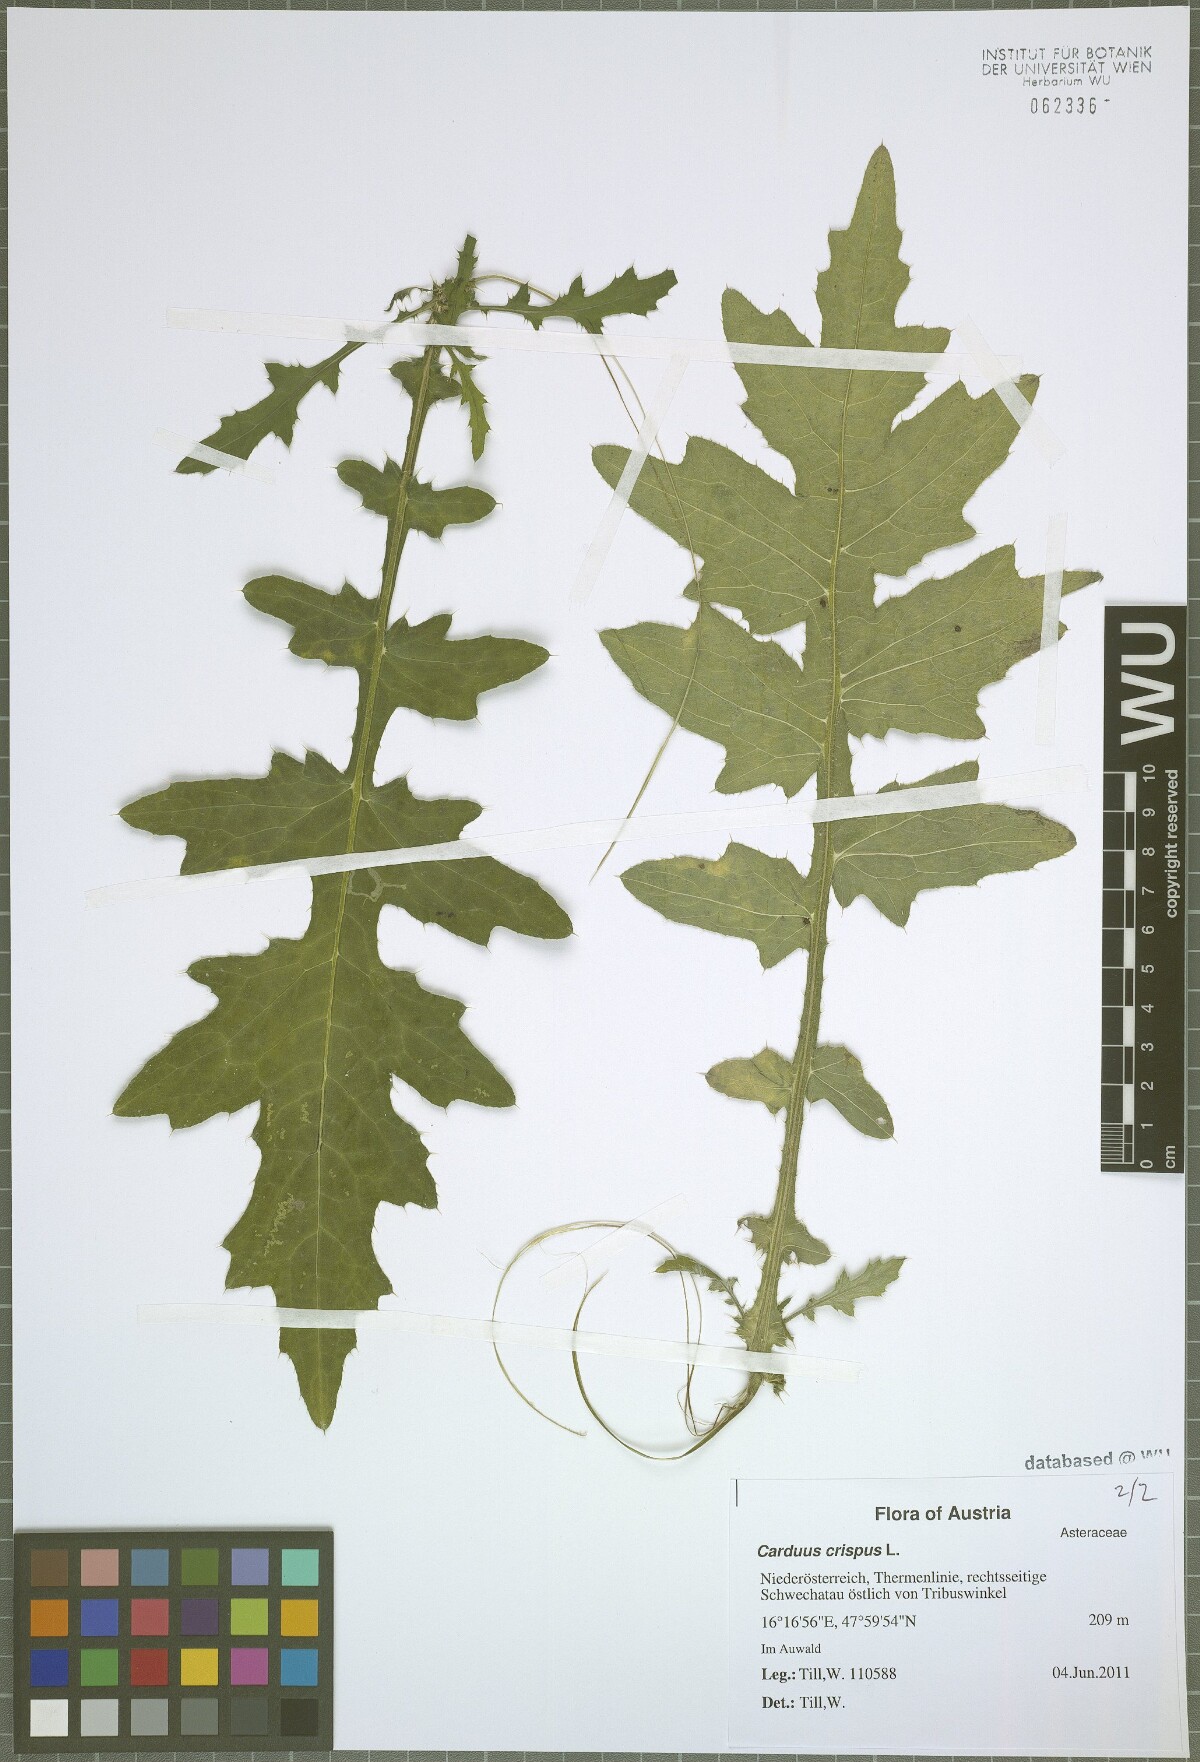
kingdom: Plantae
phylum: Tracheophyta
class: Magnoliopsida
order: Asterales
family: Asteraceae
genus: Carduus
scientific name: Carduus crispus
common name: Welted thistle
